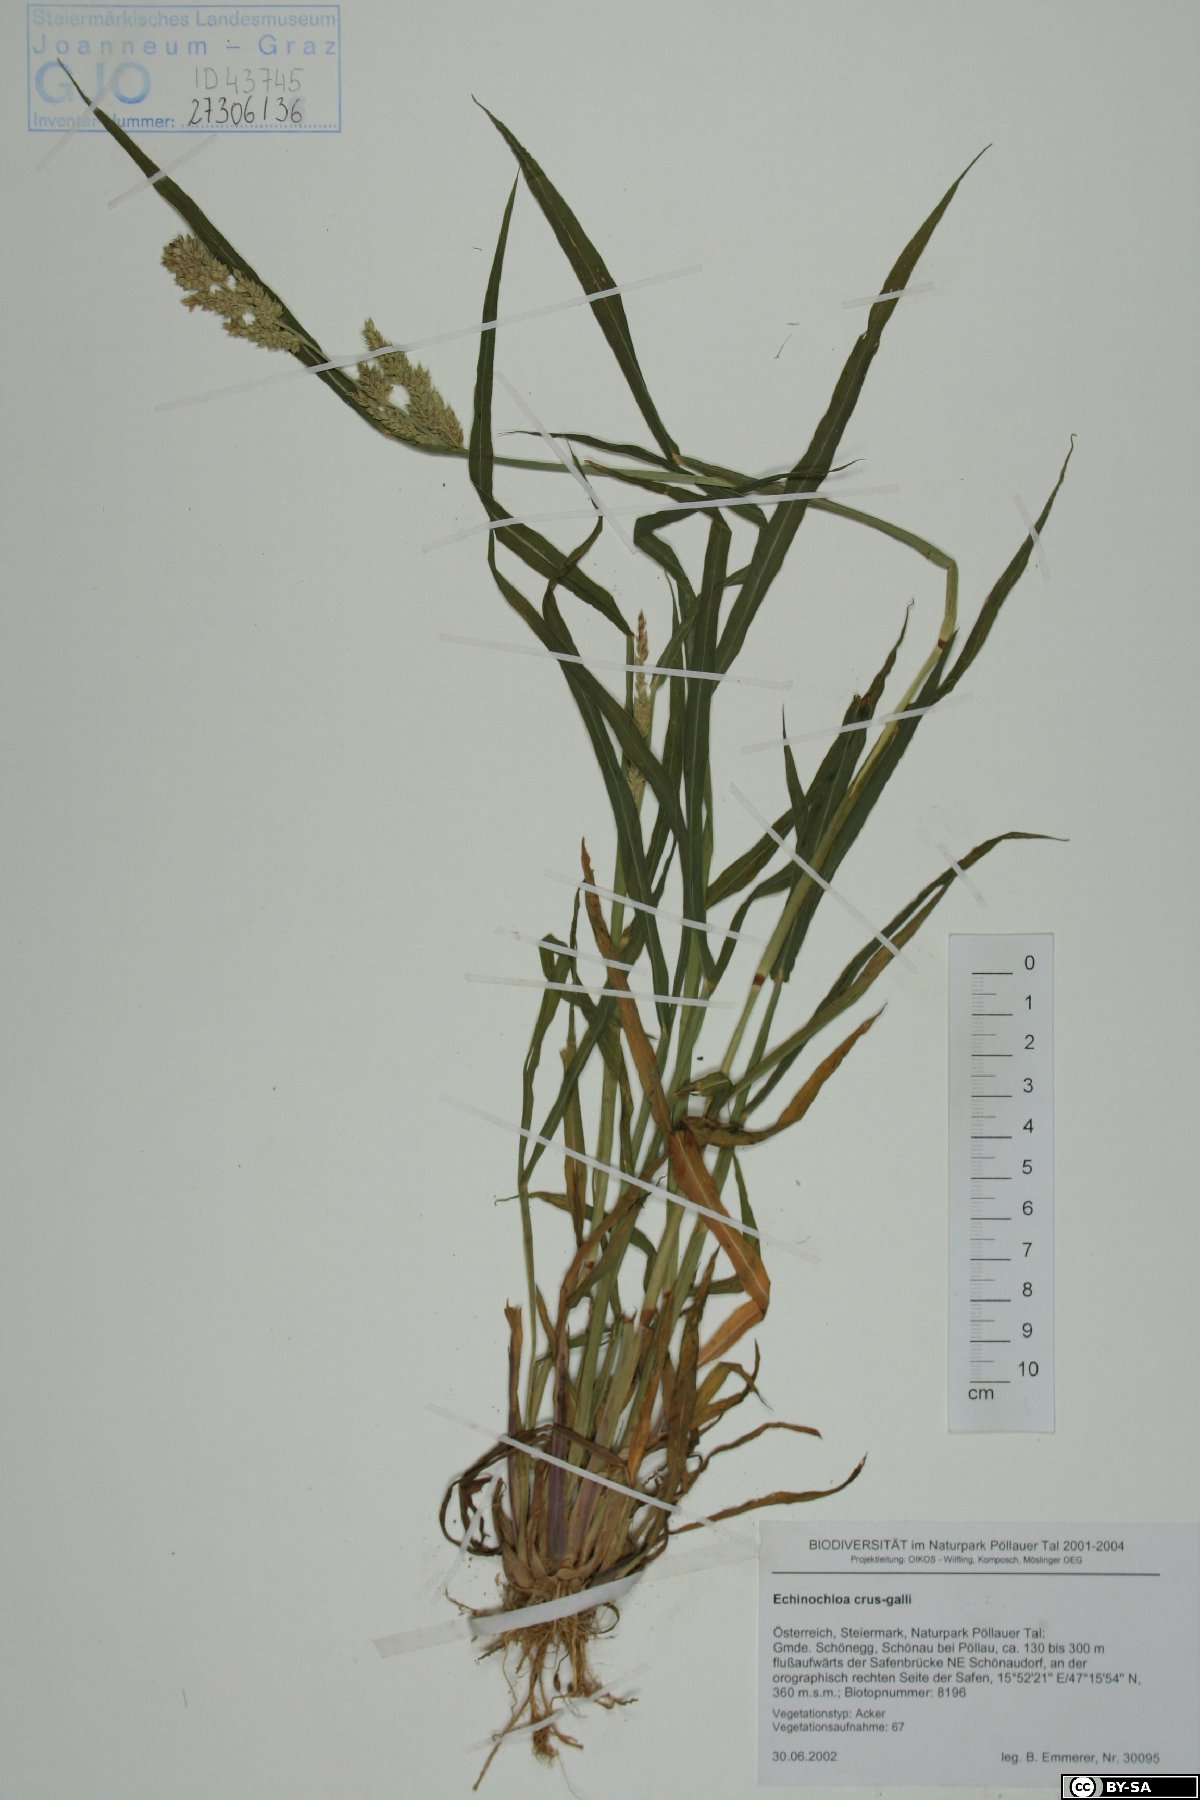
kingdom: Plantae
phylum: Tracheophyta
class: Liliopsida
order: Poales
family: Poaceae
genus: Echinochloa
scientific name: Echinochloa crus-galli
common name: Cockspur
